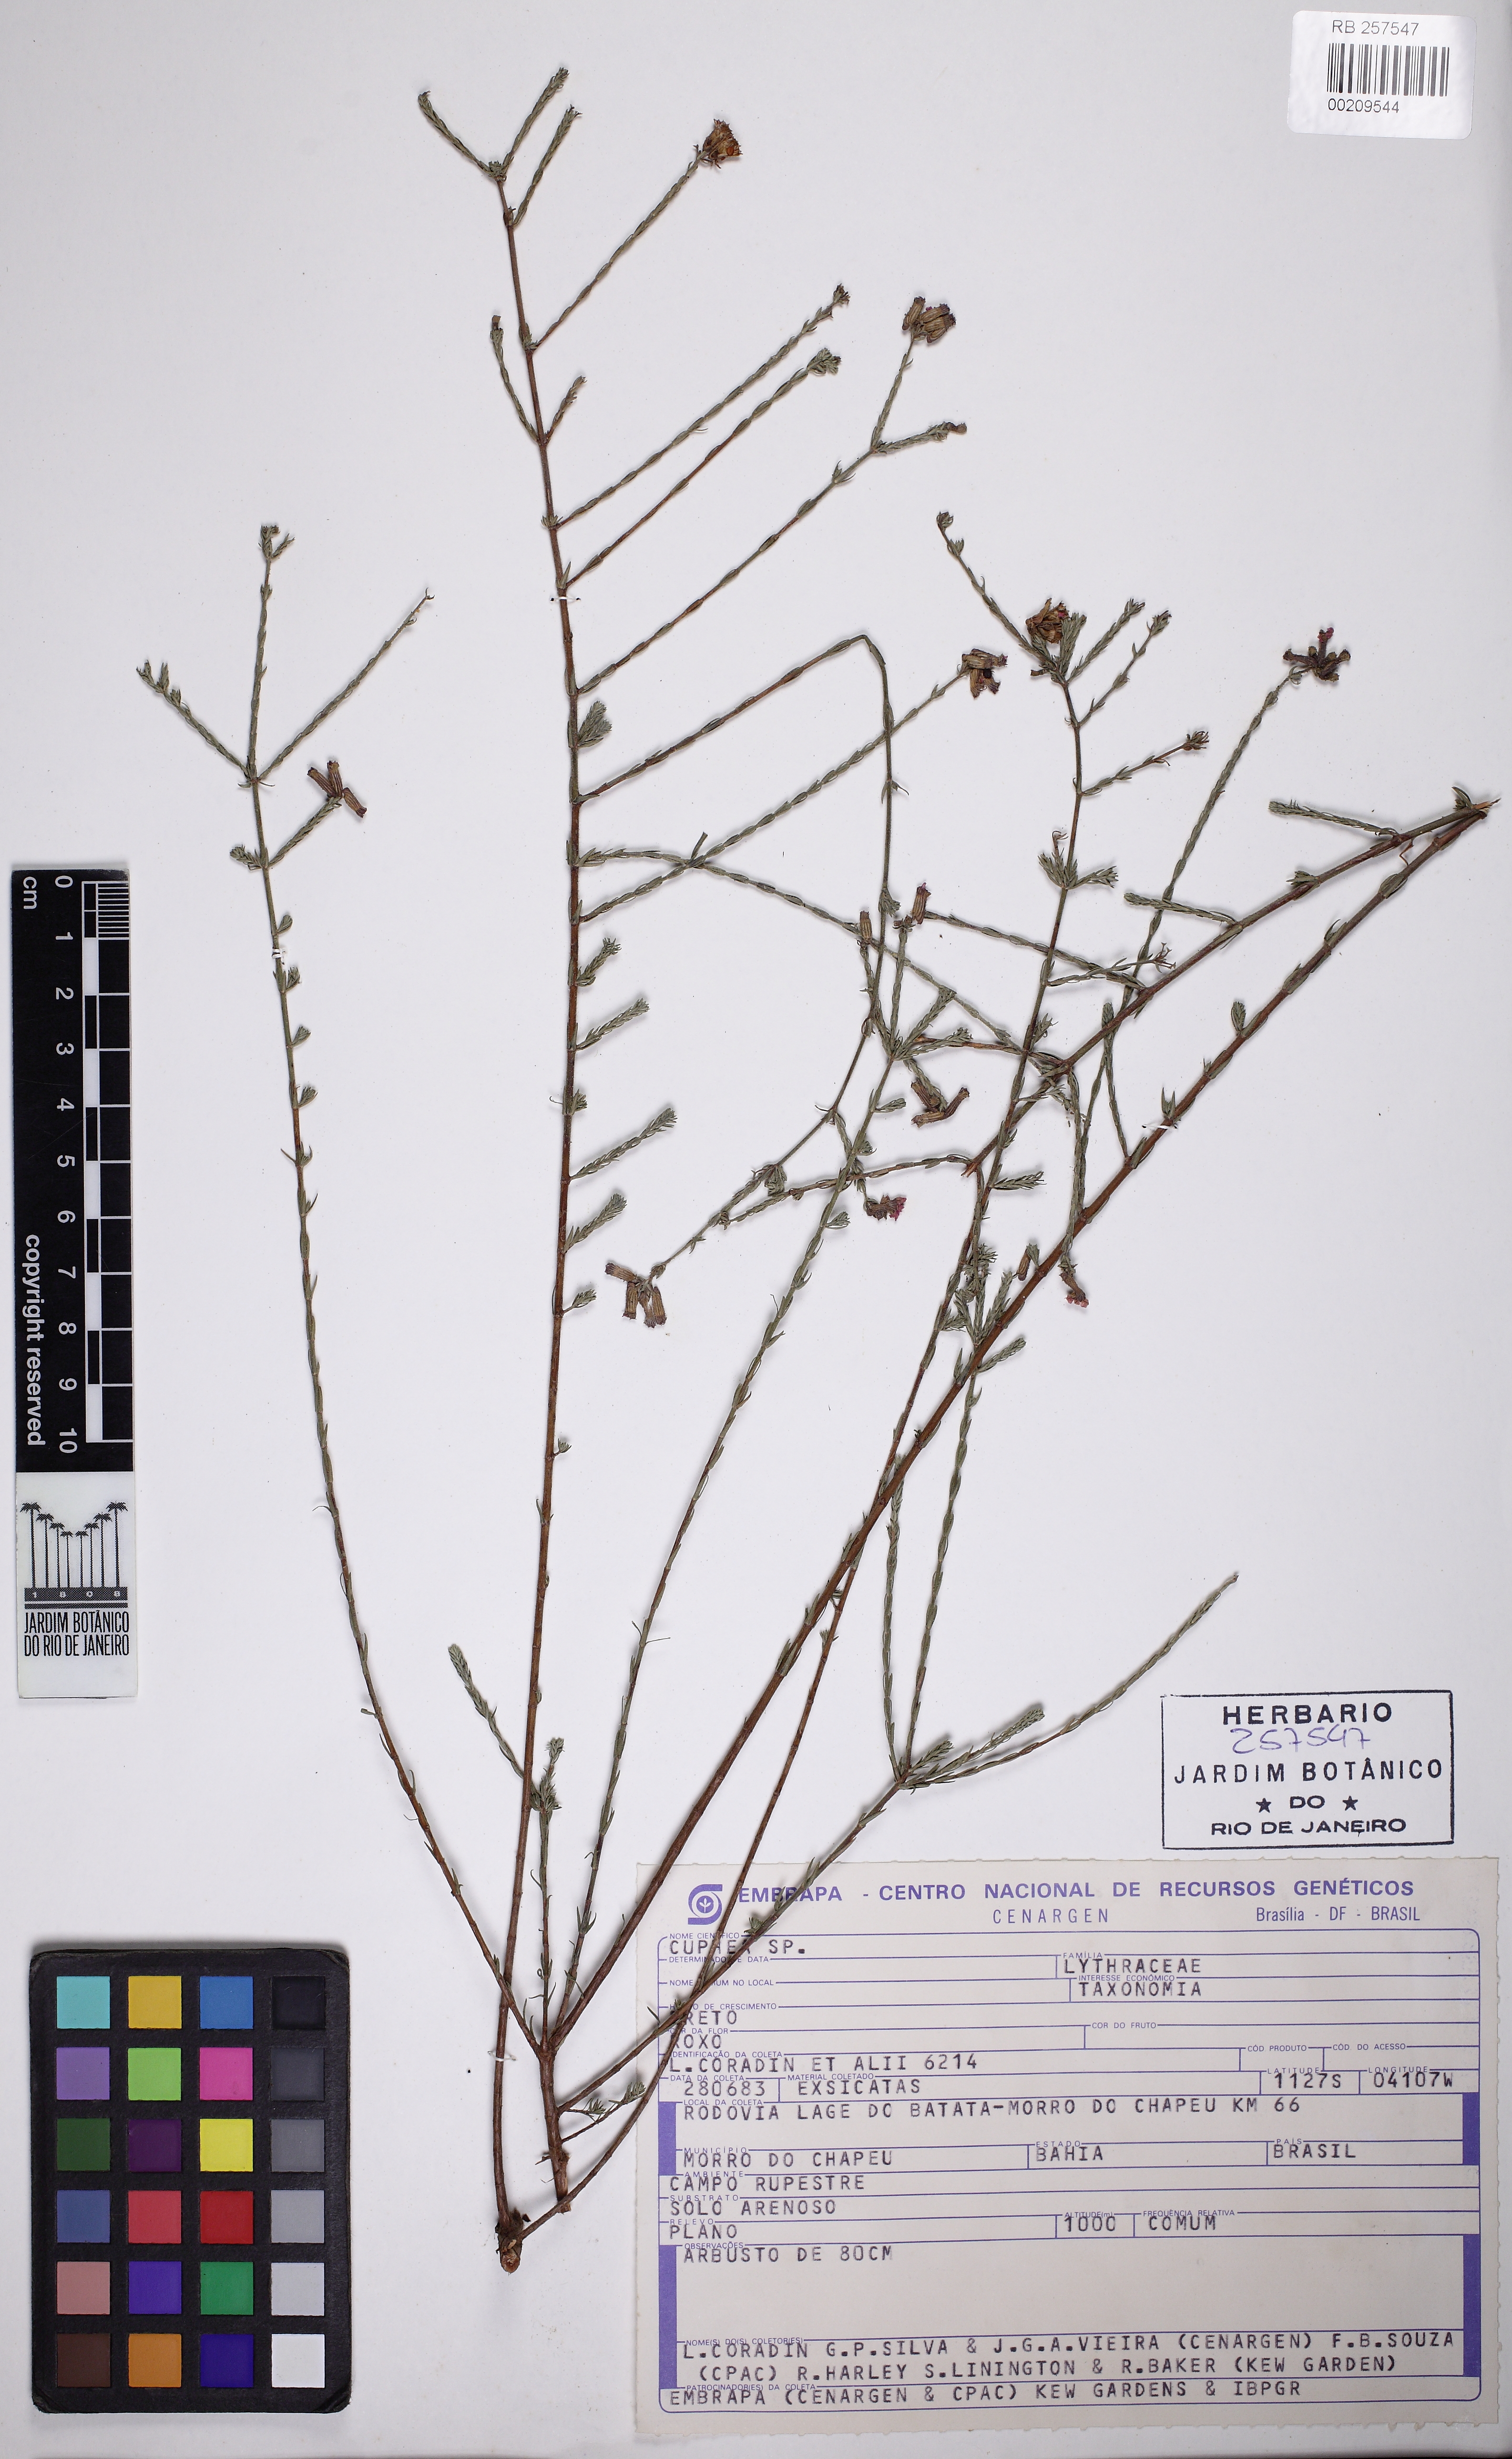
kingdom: Plantae
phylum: Tracheophyta
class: Magnoliopsida
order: Myrtales
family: Lythraceae
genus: Cuphea
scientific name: Cuphea ericoides
